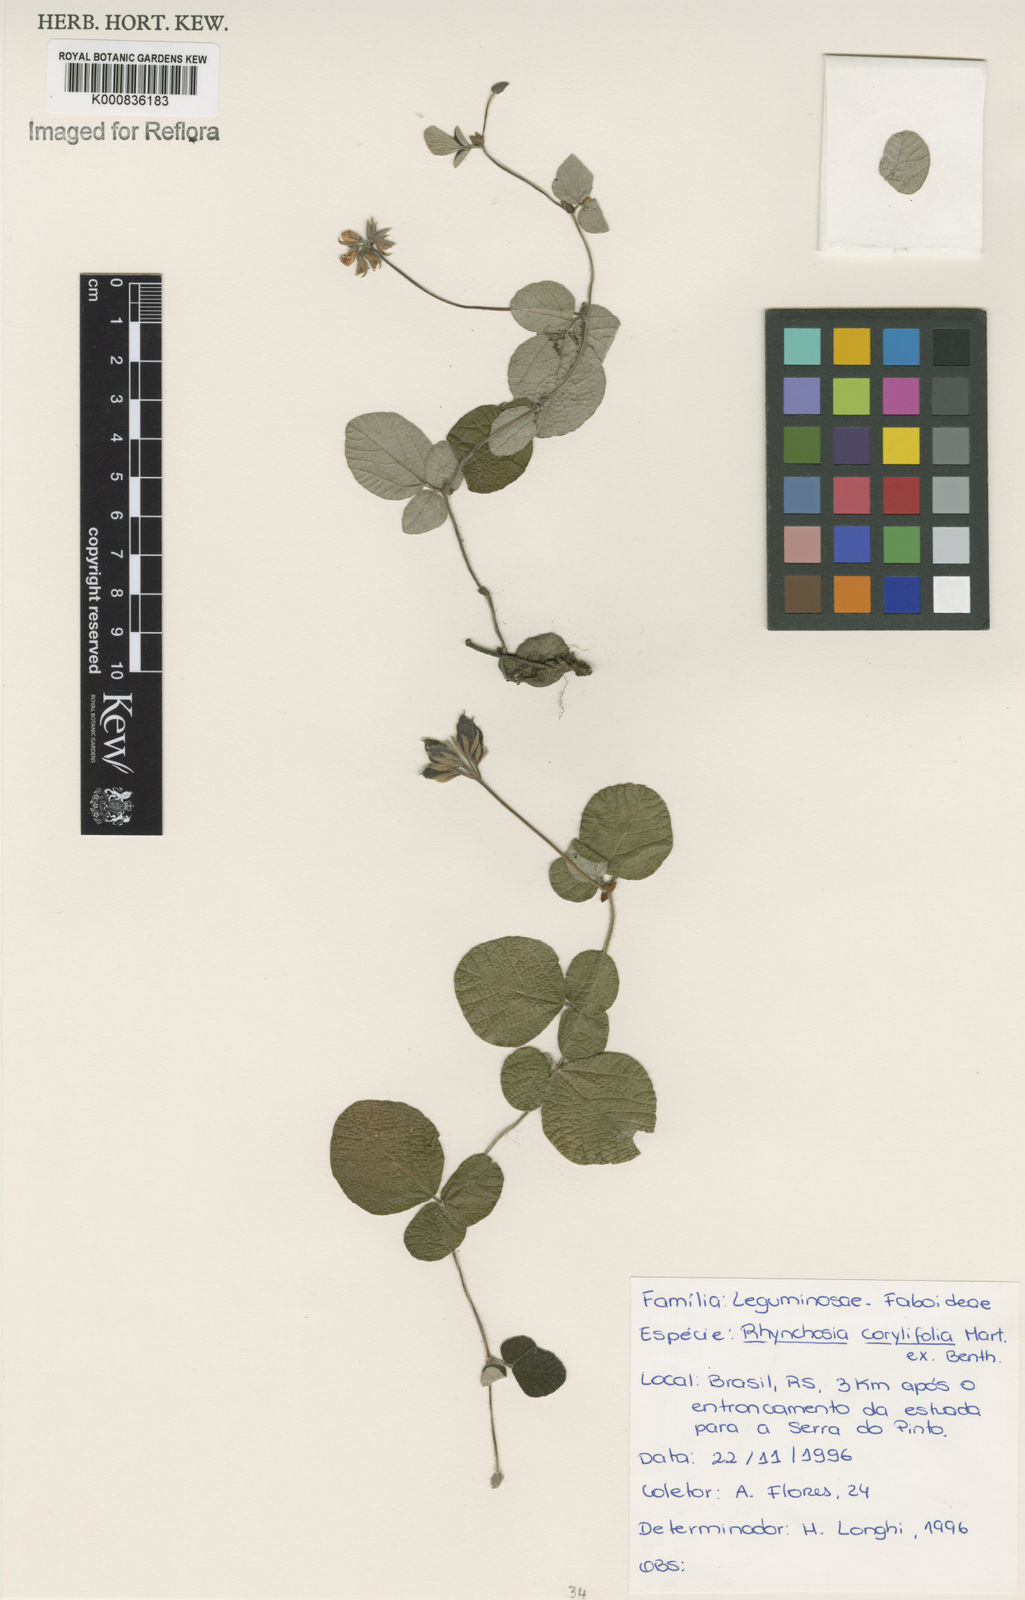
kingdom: Plantae
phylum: Tracheophyta
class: Magnoliopsida
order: Fabales
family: Fabaceae
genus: Rhynchosia
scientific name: Rhynchosia corylifolia
